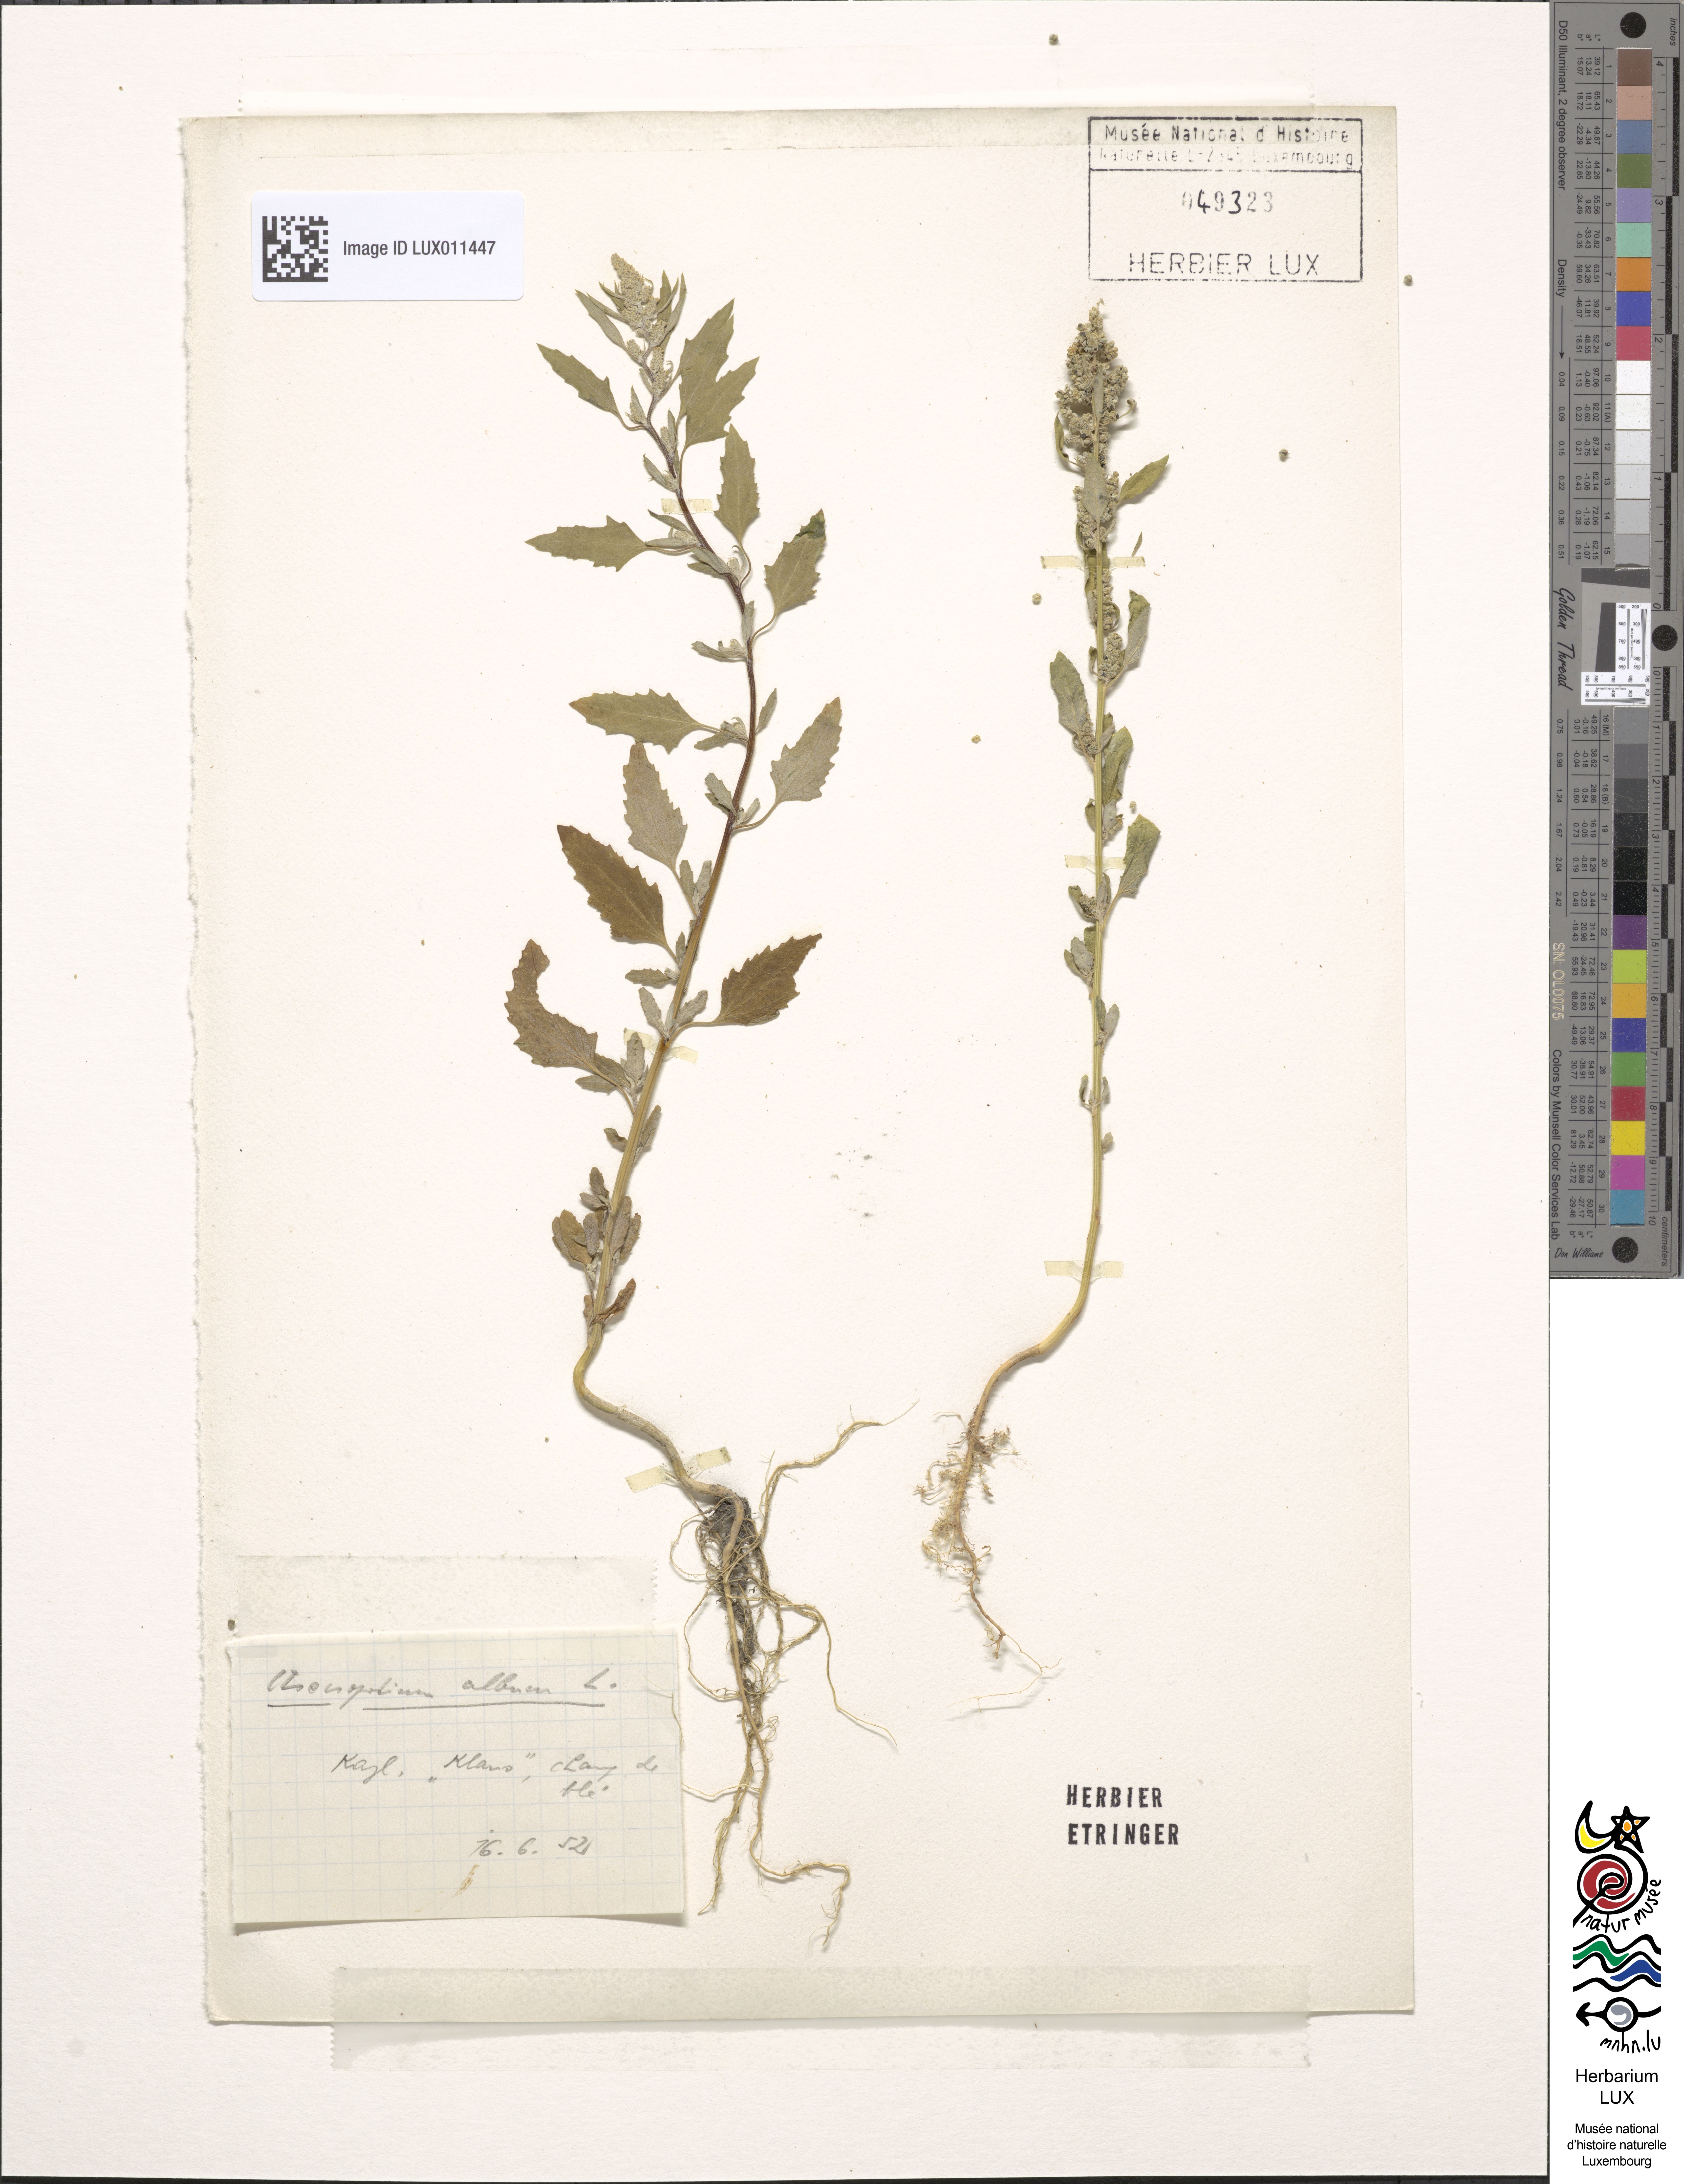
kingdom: Plantae
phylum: Tracheophyta
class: Magnoliopsida
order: Caryophyllales
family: Amaranthaceae
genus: Chenopodium
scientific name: Chenopodium album
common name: Fat-hen
